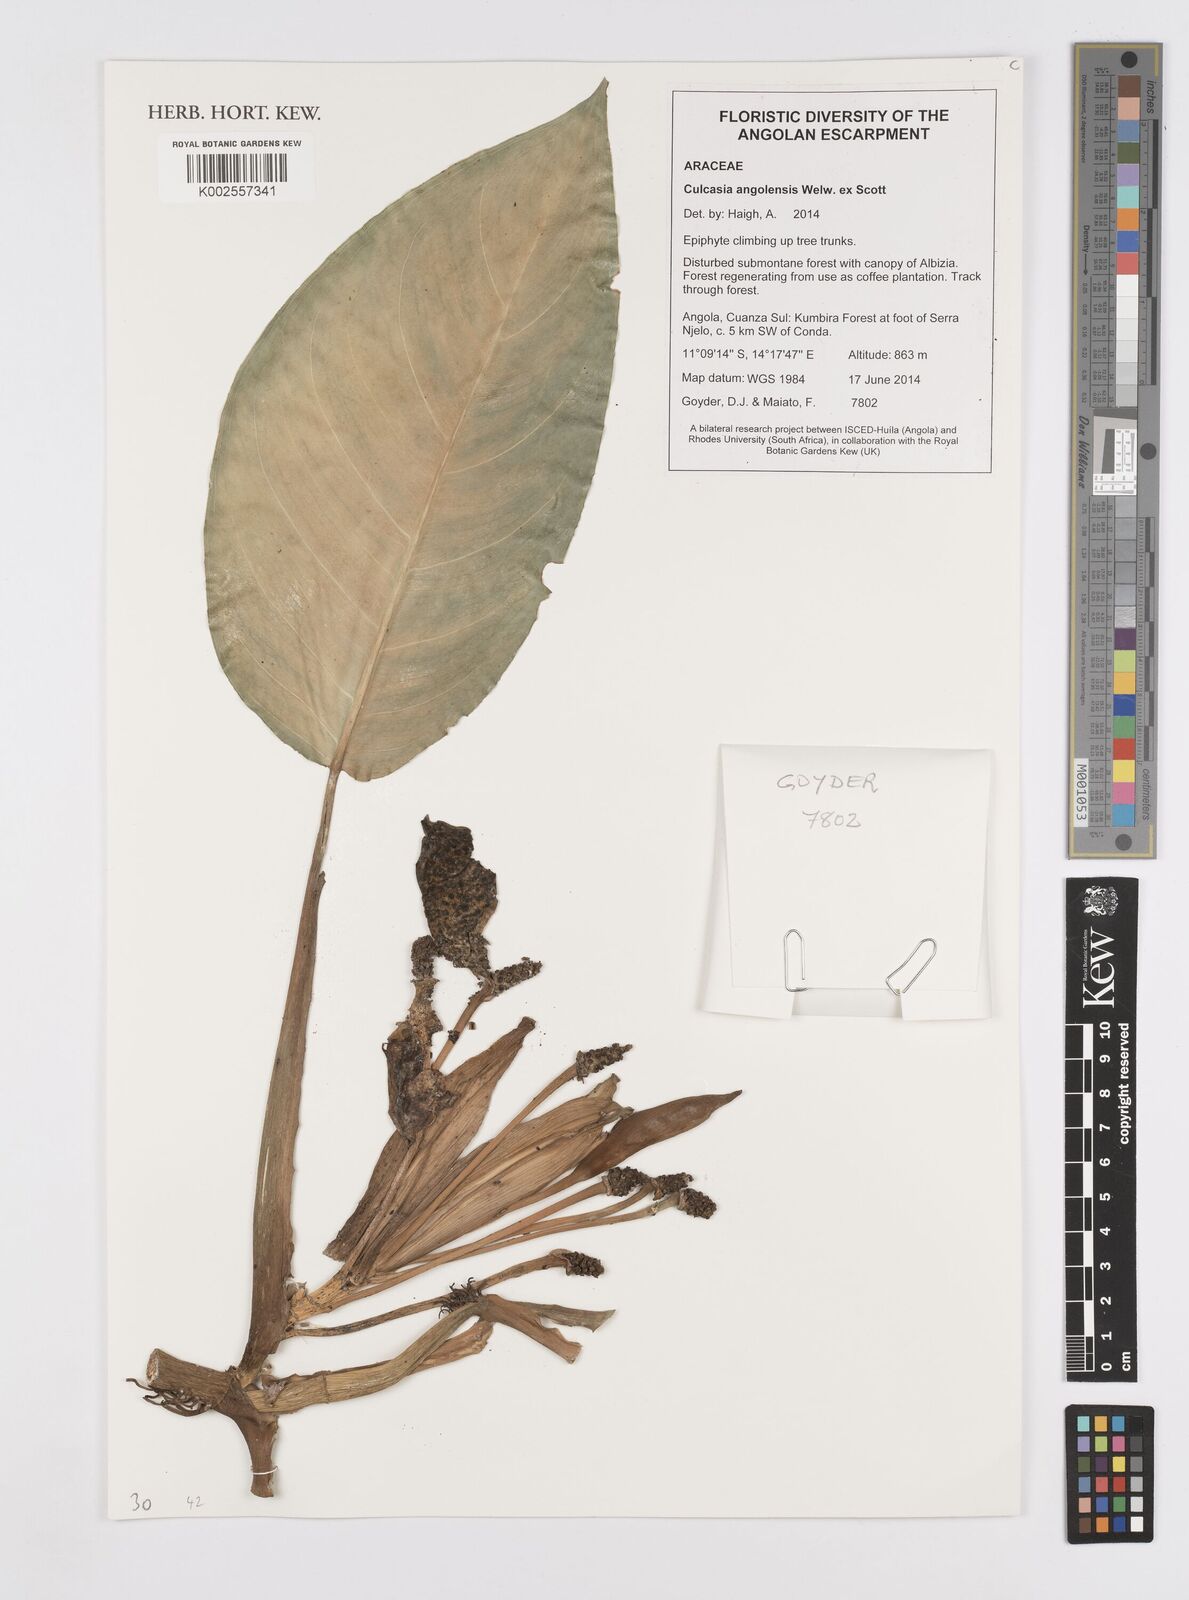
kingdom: Plantae
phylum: Tracheophyta
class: Liliopsida
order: Alismatales
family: Araceae
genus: Culcasia
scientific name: Culcasia angolensis
